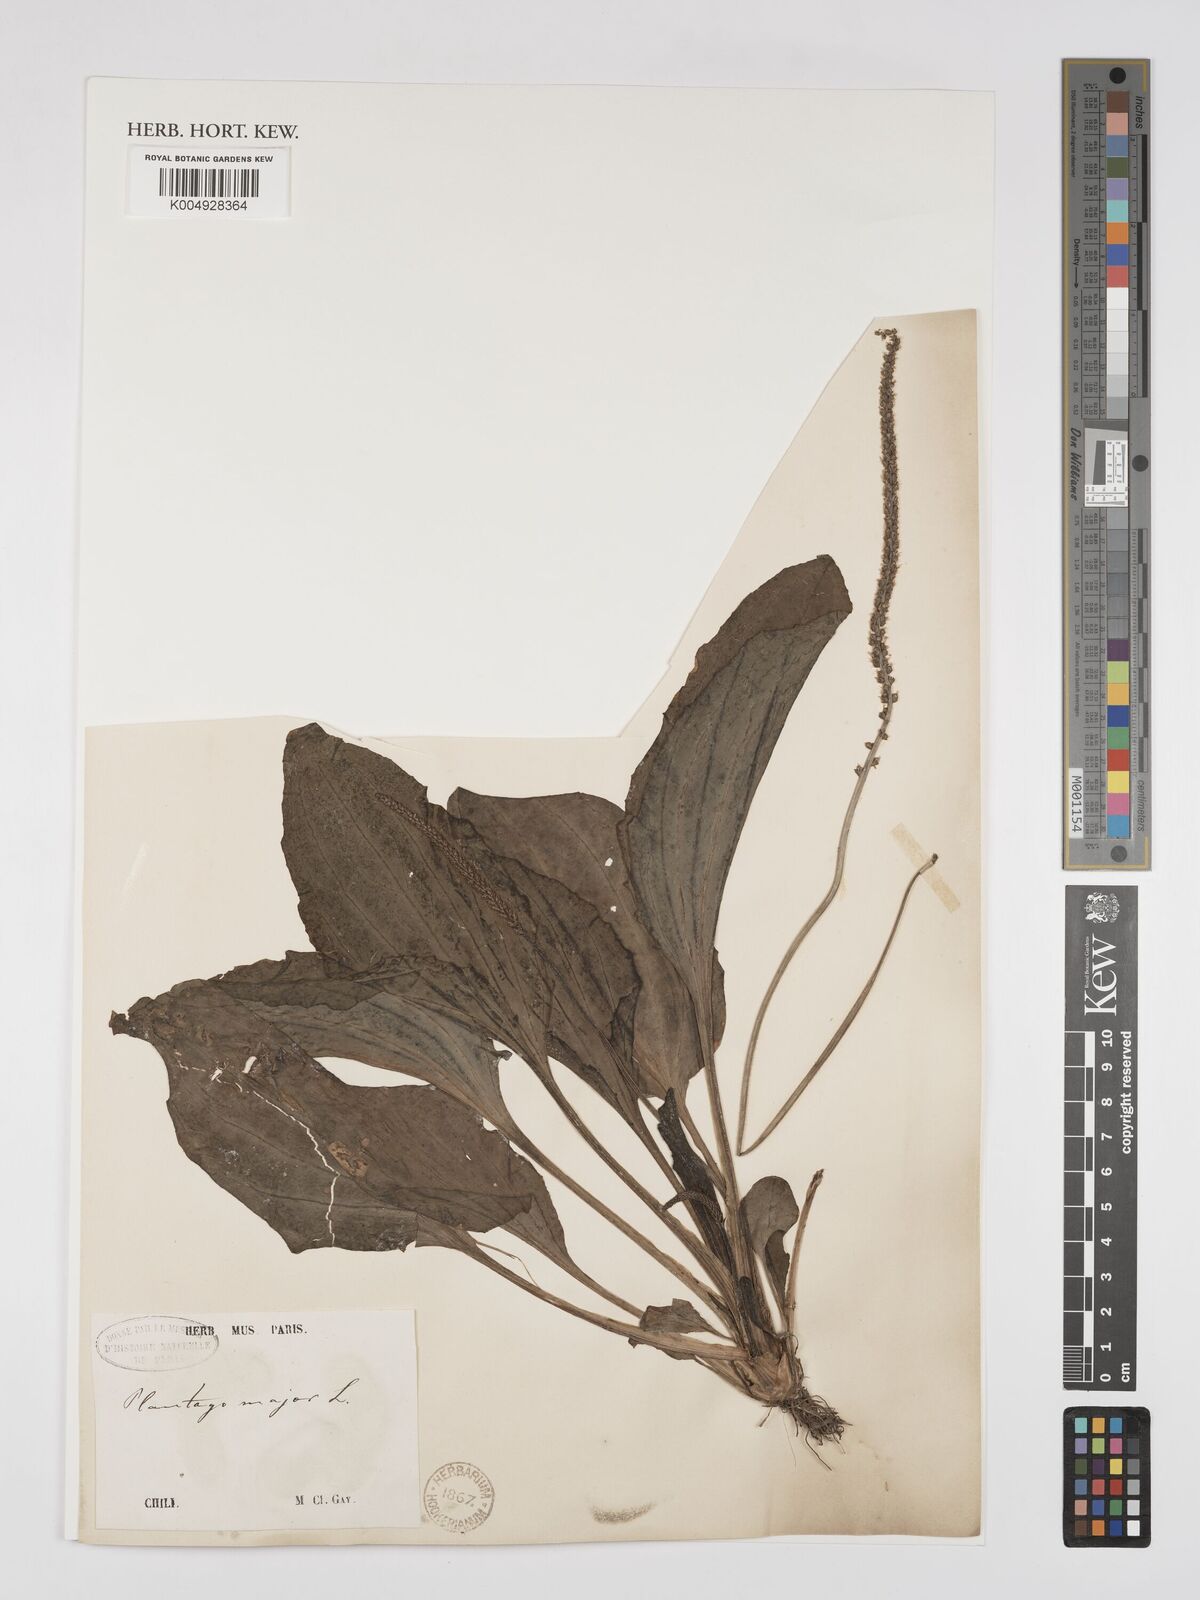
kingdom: Plantae
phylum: Tracheophyta
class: Magnoliopsida
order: Lamiales
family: Plantaginaceae
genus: Plantago
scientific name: Plantago major
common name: Common plantain
